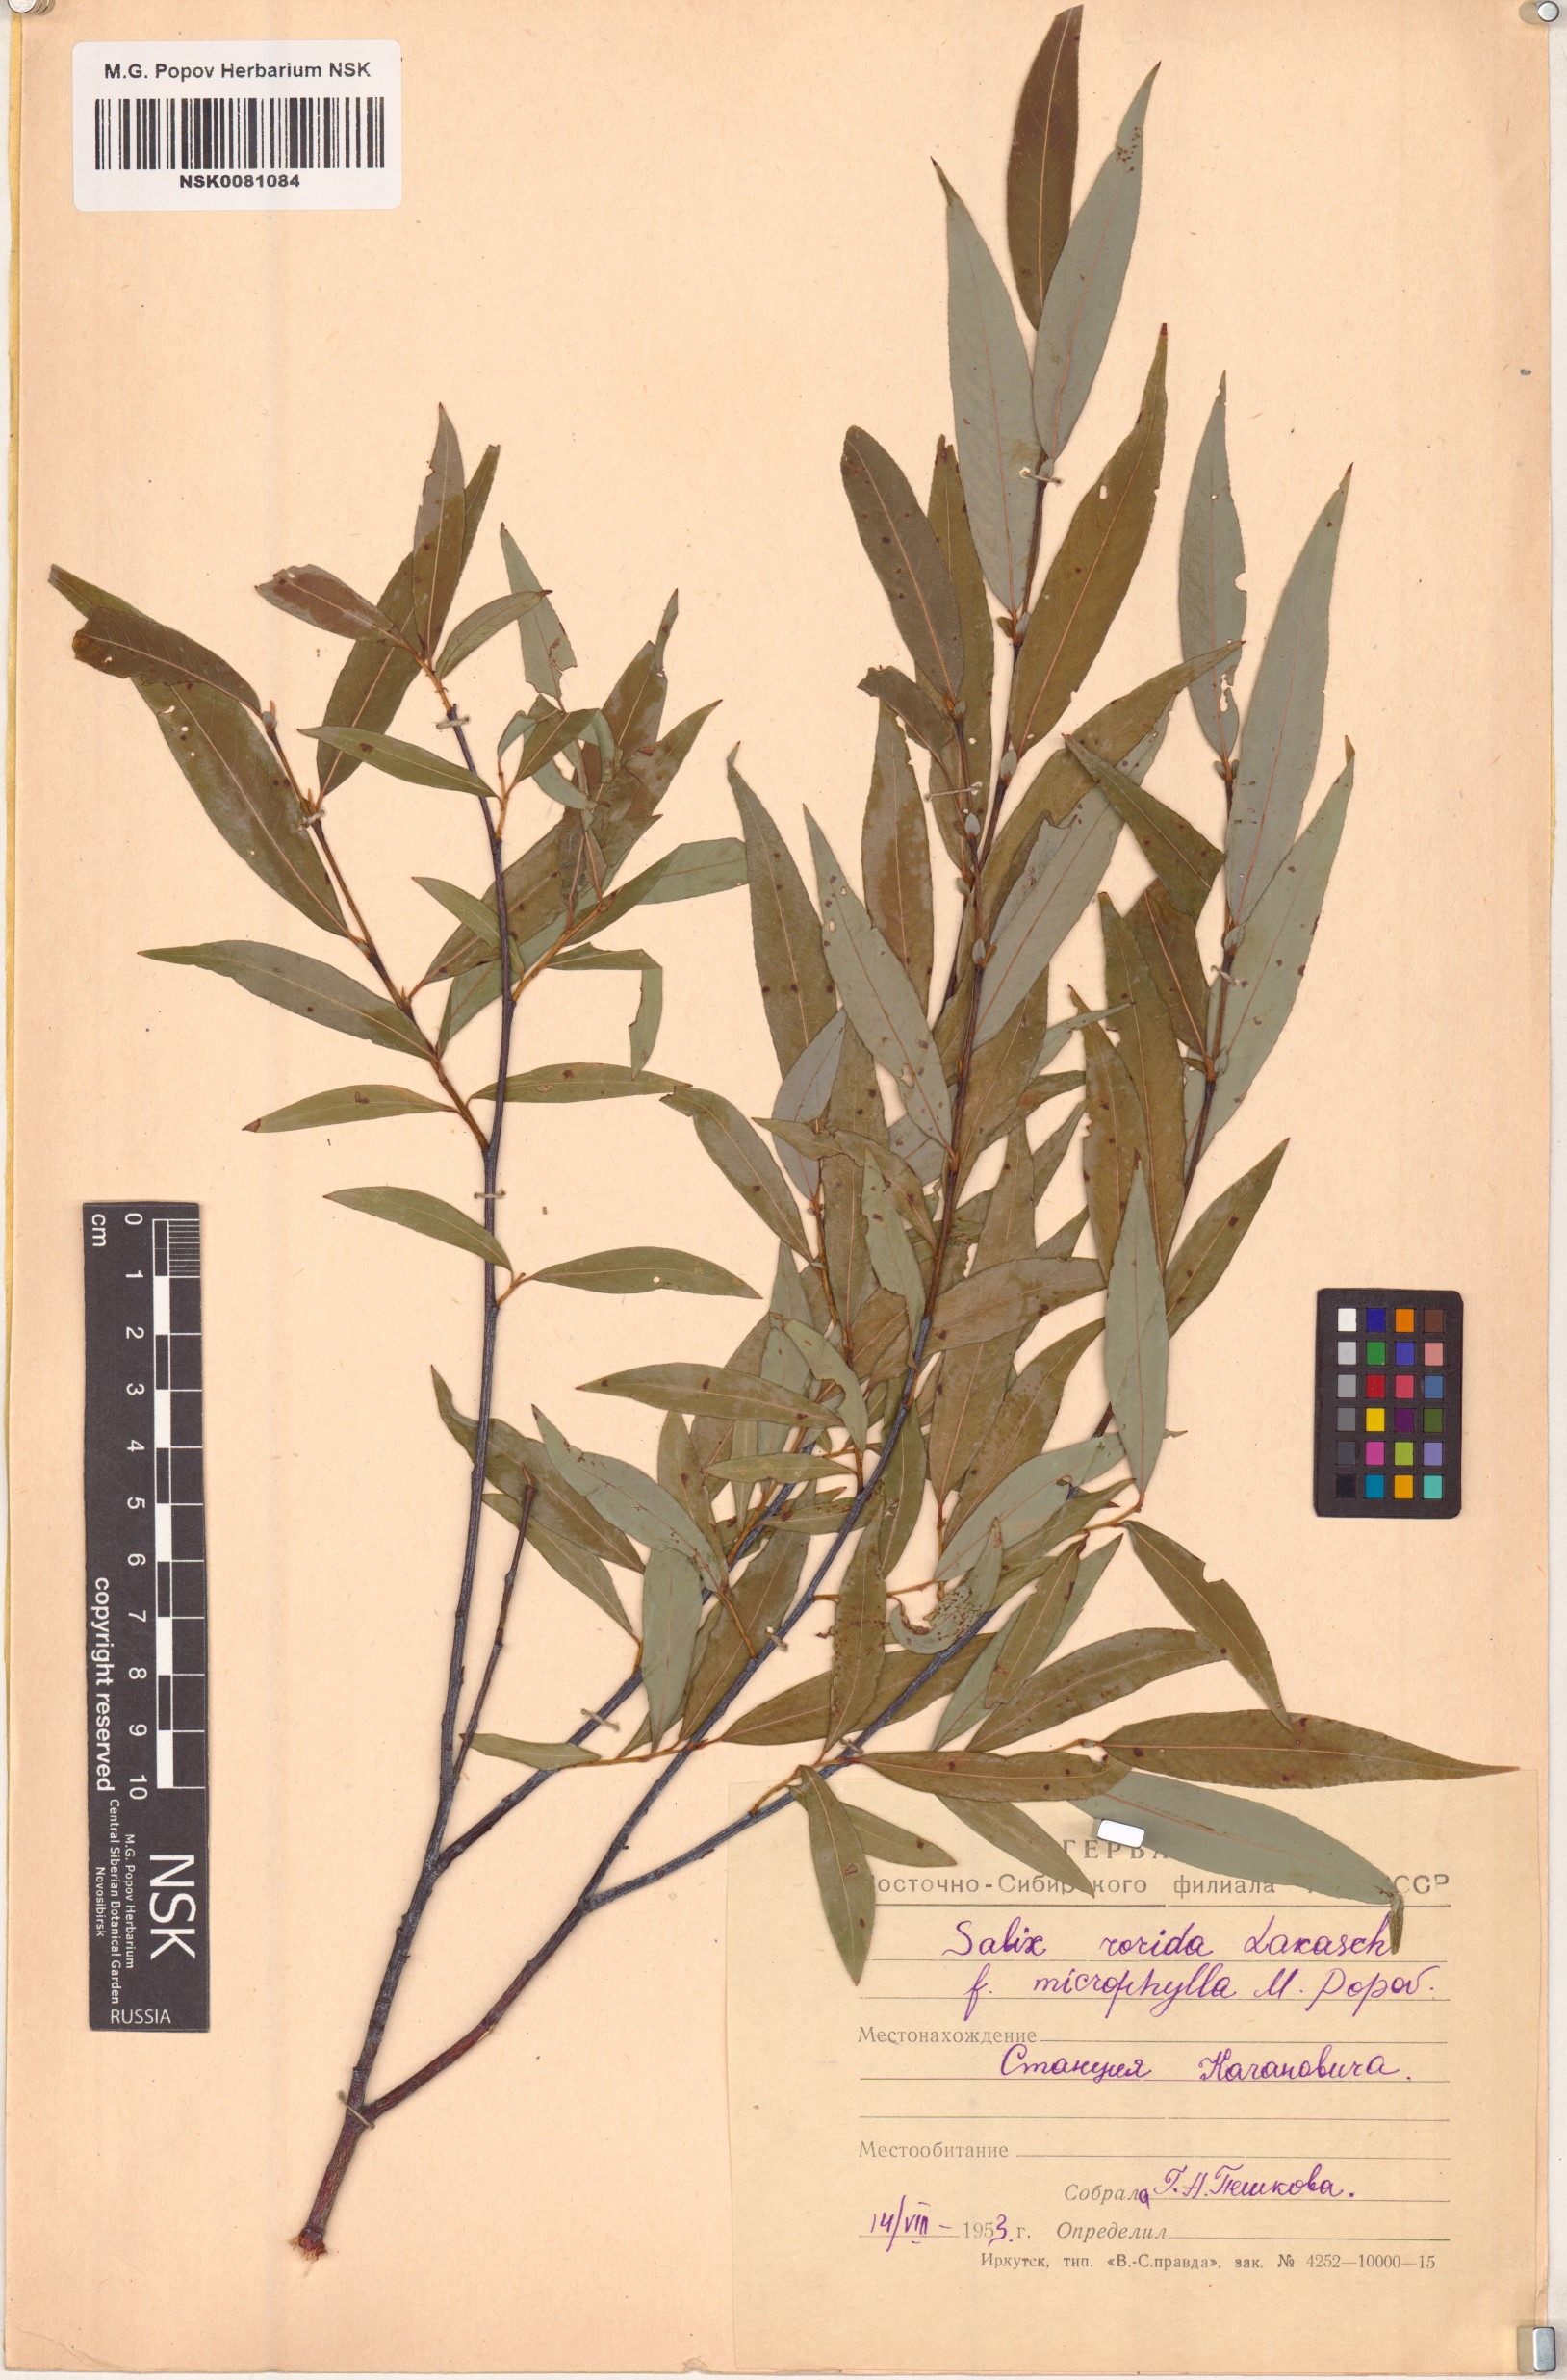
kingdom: Plantae
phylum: Tracheophyta
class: Magnoliopsida
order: Malpighiales
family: Salicaceae
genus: Salix
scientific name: Salix rorida
